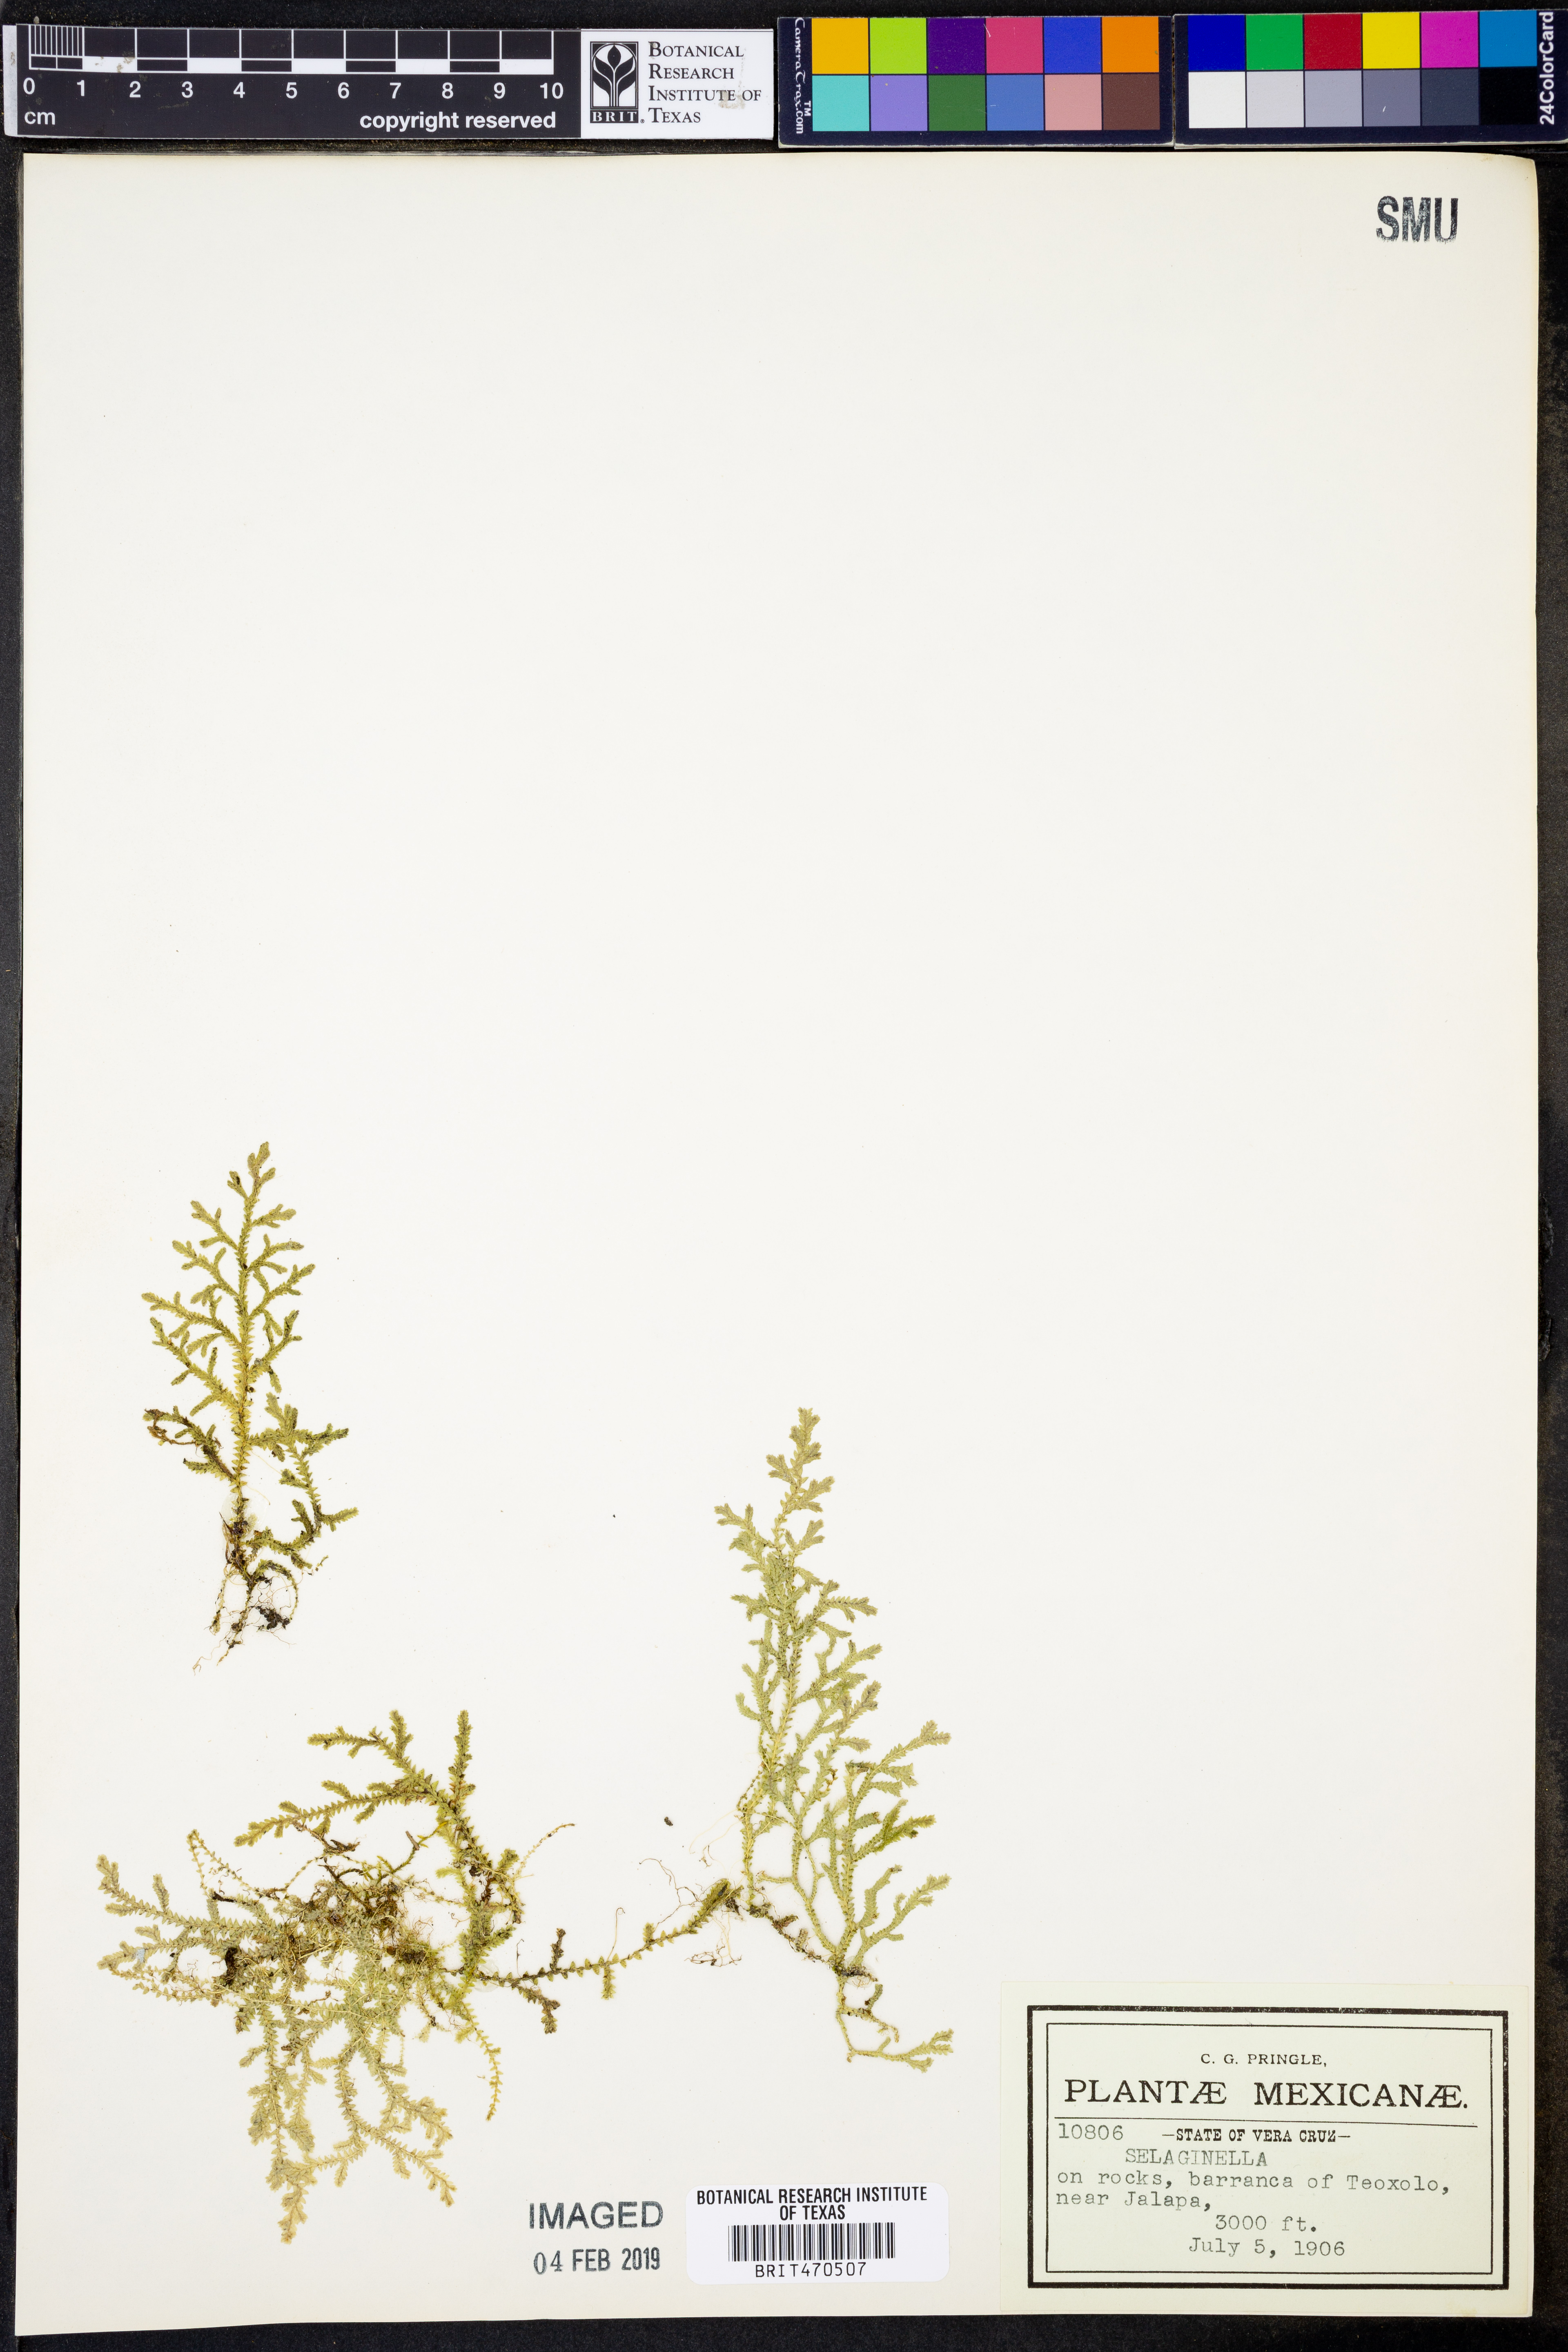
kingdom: Plantae
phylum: Tracheophyta
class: Lycopodiopsida
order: Selaginellales
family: Selaginellaceae
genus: Selaginella
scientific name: Selaginella
